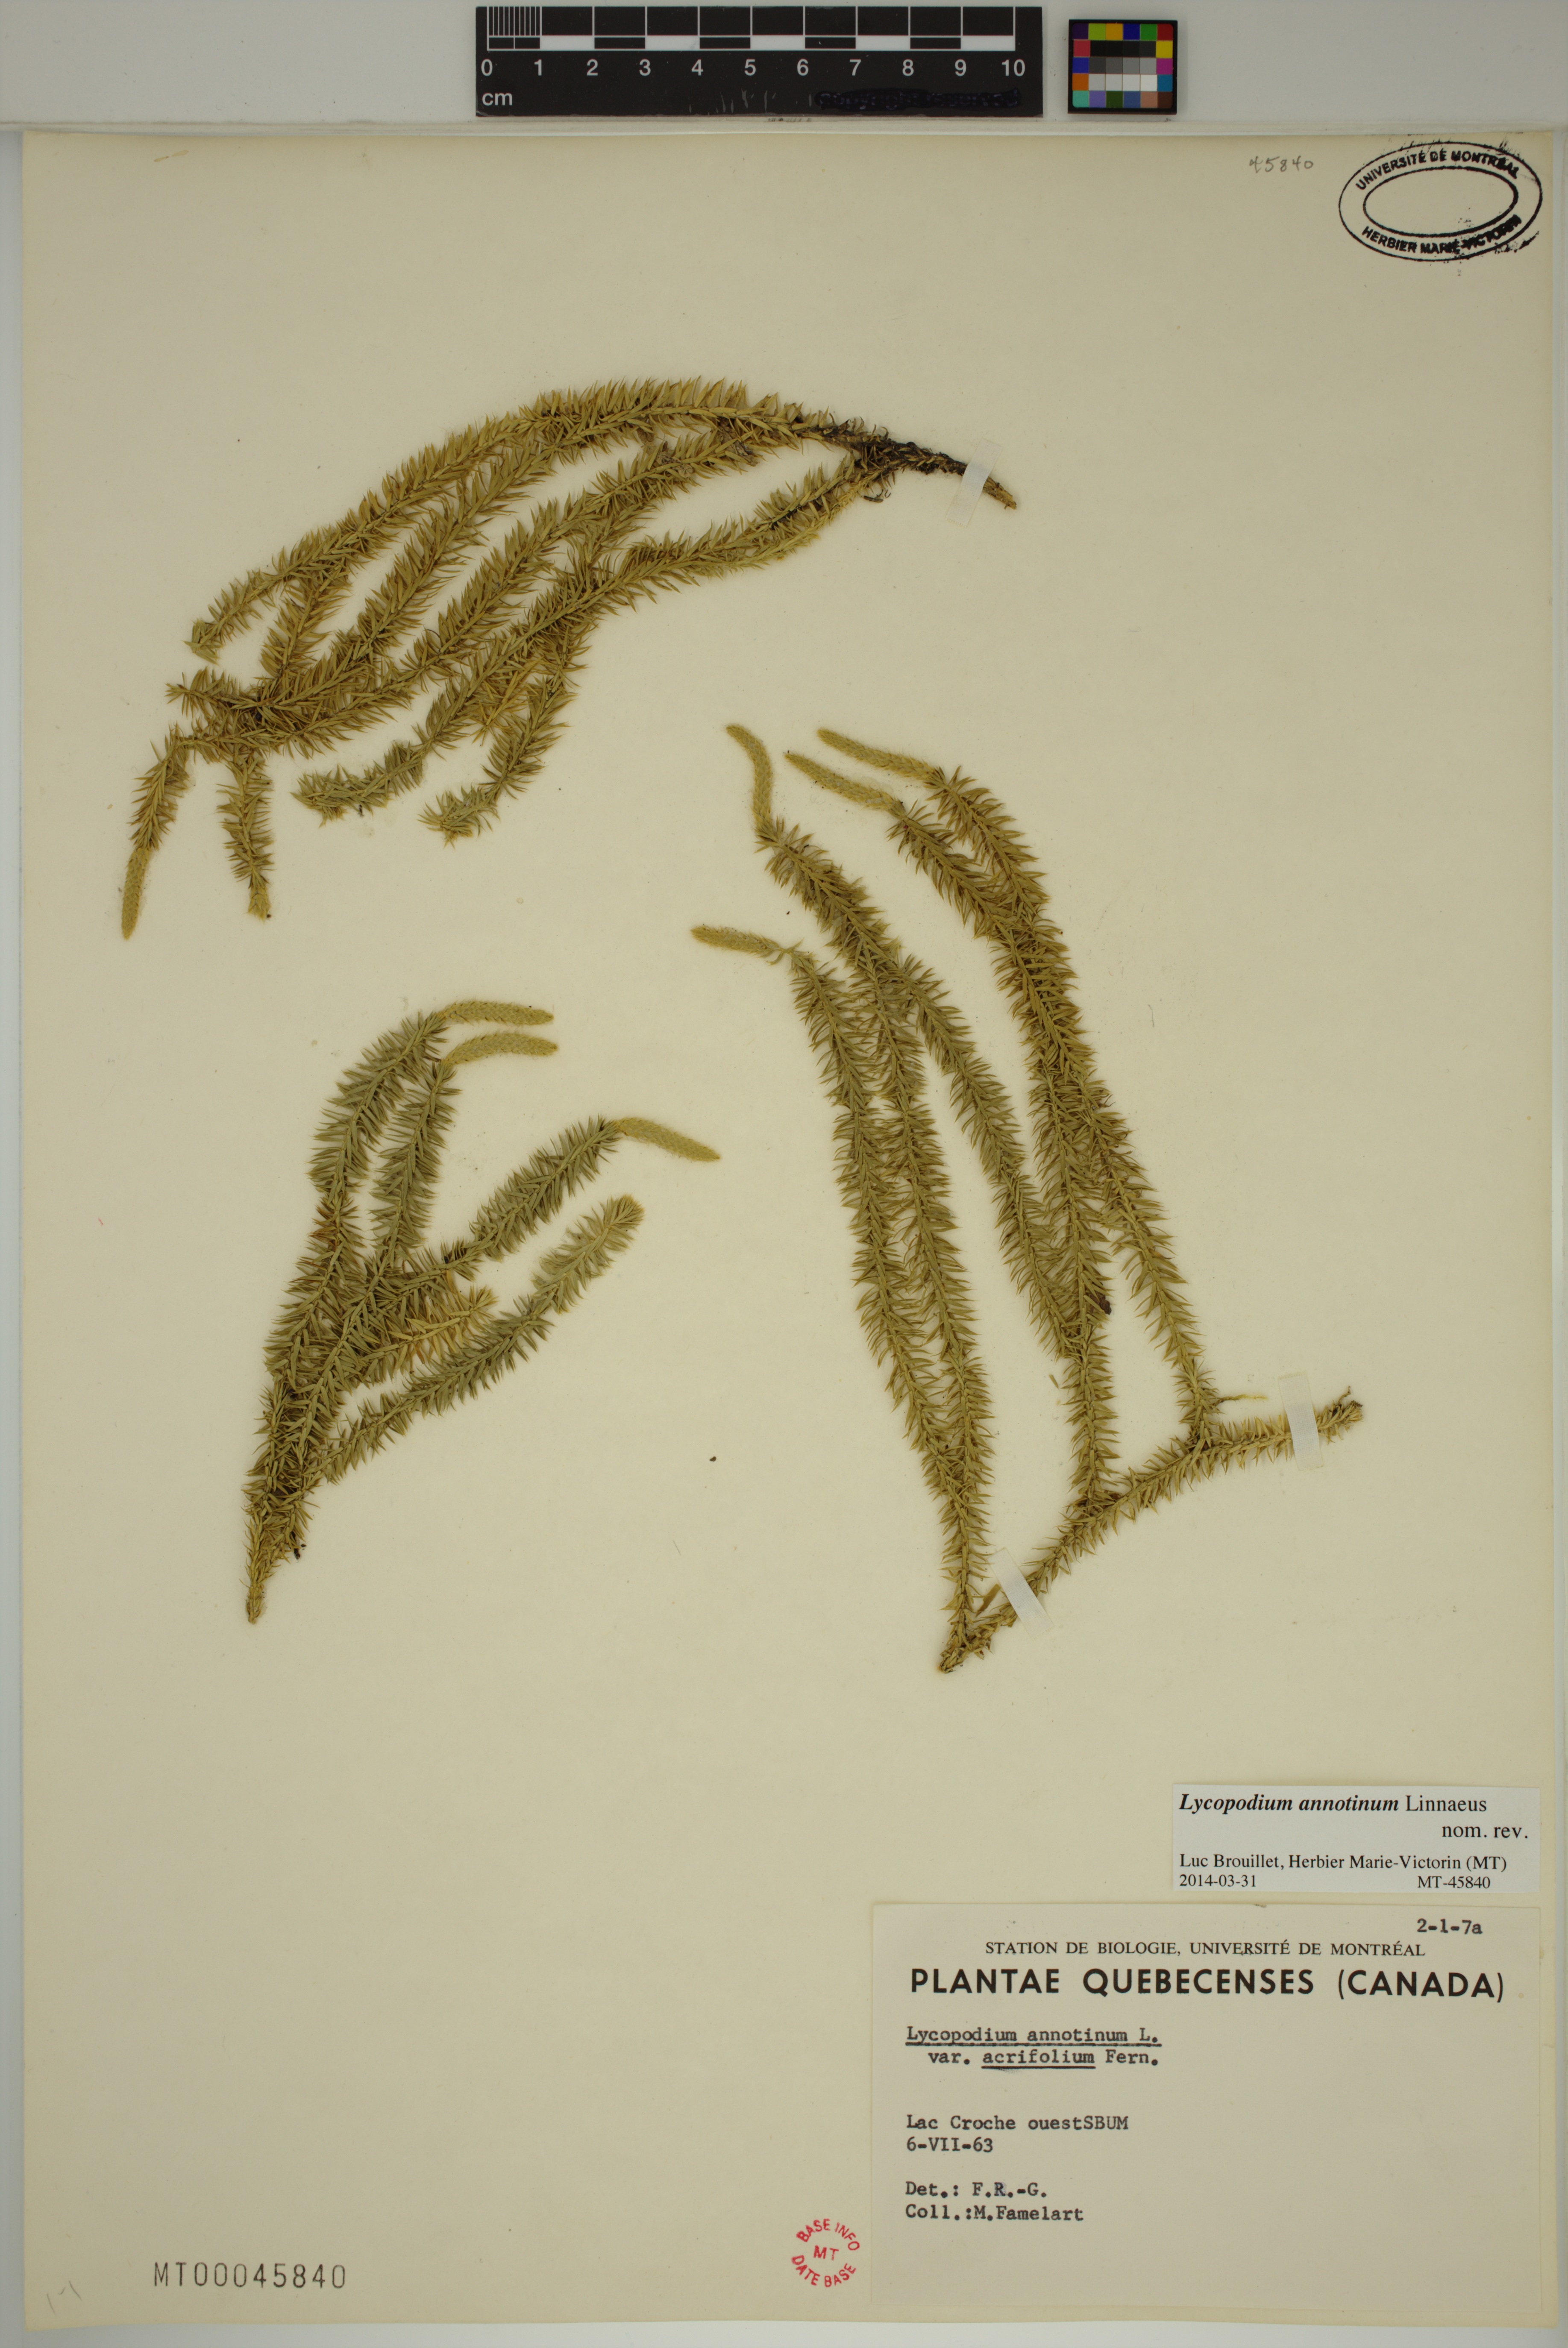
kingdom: Plantae
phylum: Tracheophyta
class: Lycopodiopsida
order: Lycopodiales
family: Lycopodiaceae
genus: Spinulum
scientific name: Spinulum annotinum
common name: Interrupted club-moss
